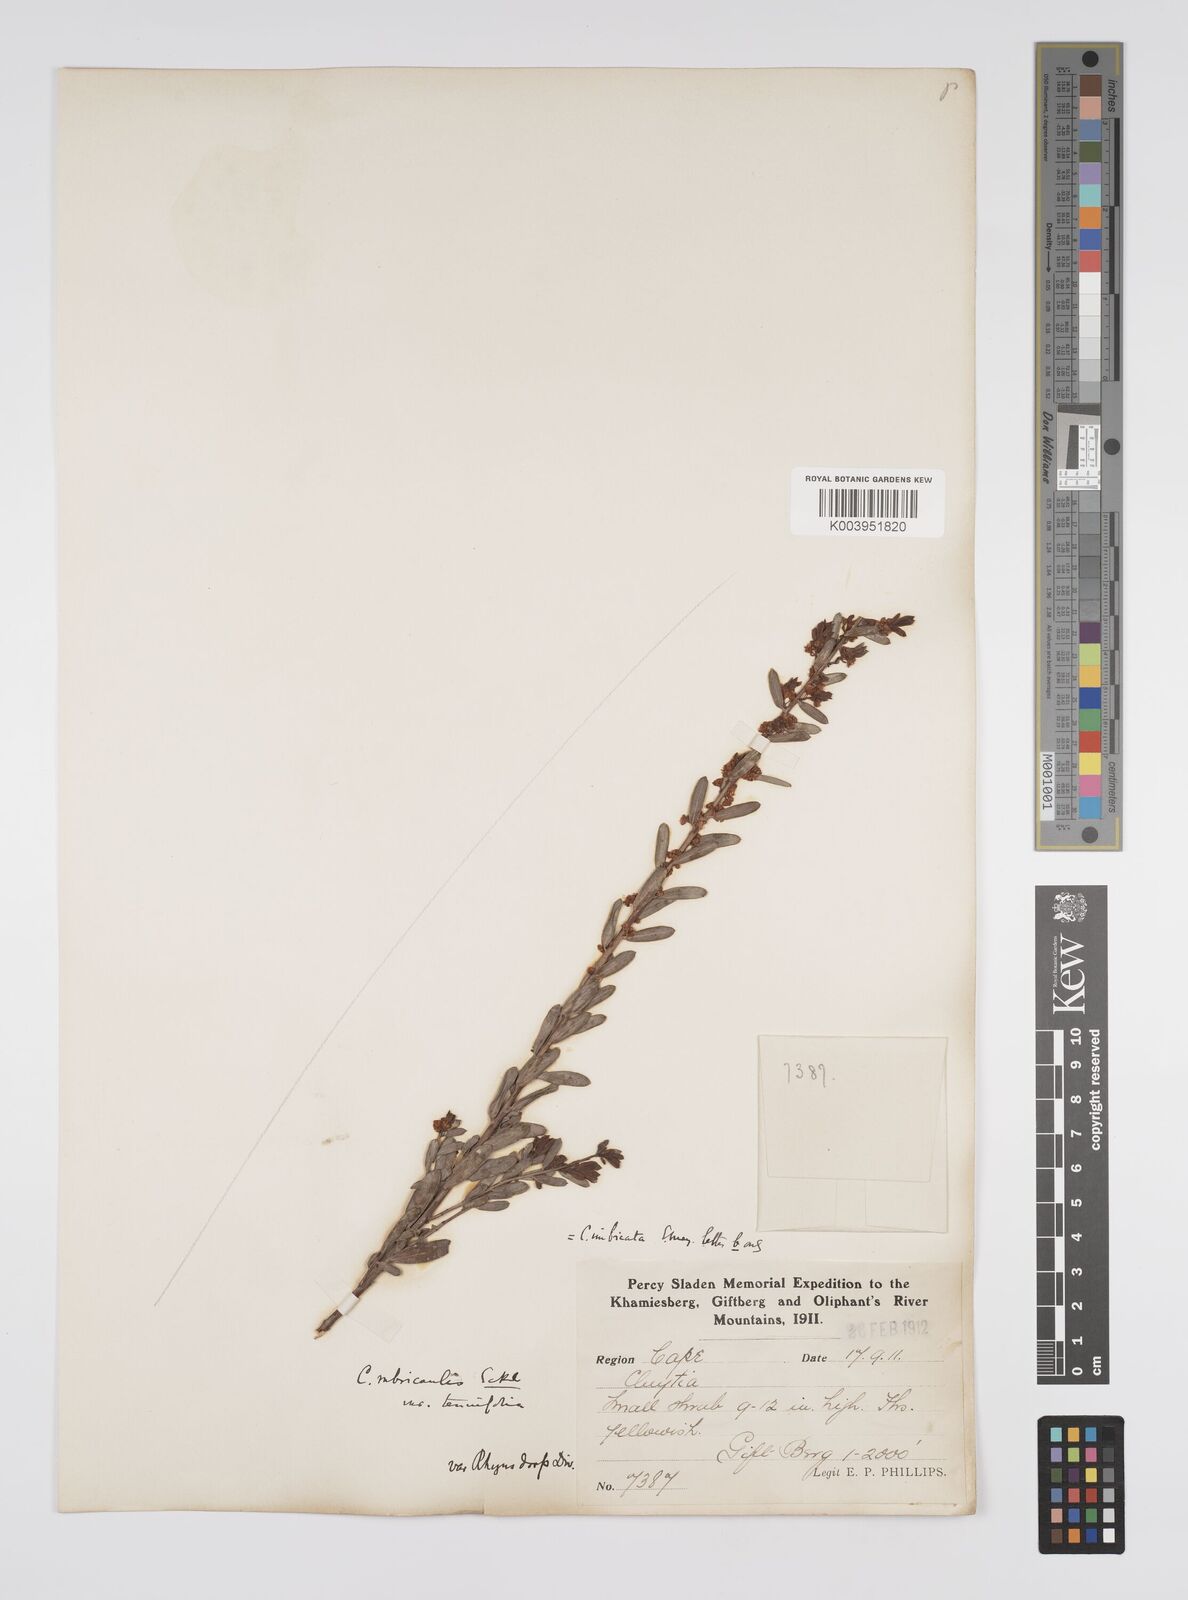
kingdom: Plantae
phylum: Tracheophyta
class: Magnoliopsida
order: Malpighiales
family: Peraceae
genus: Clutia
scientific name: Clutia rubricaulis
